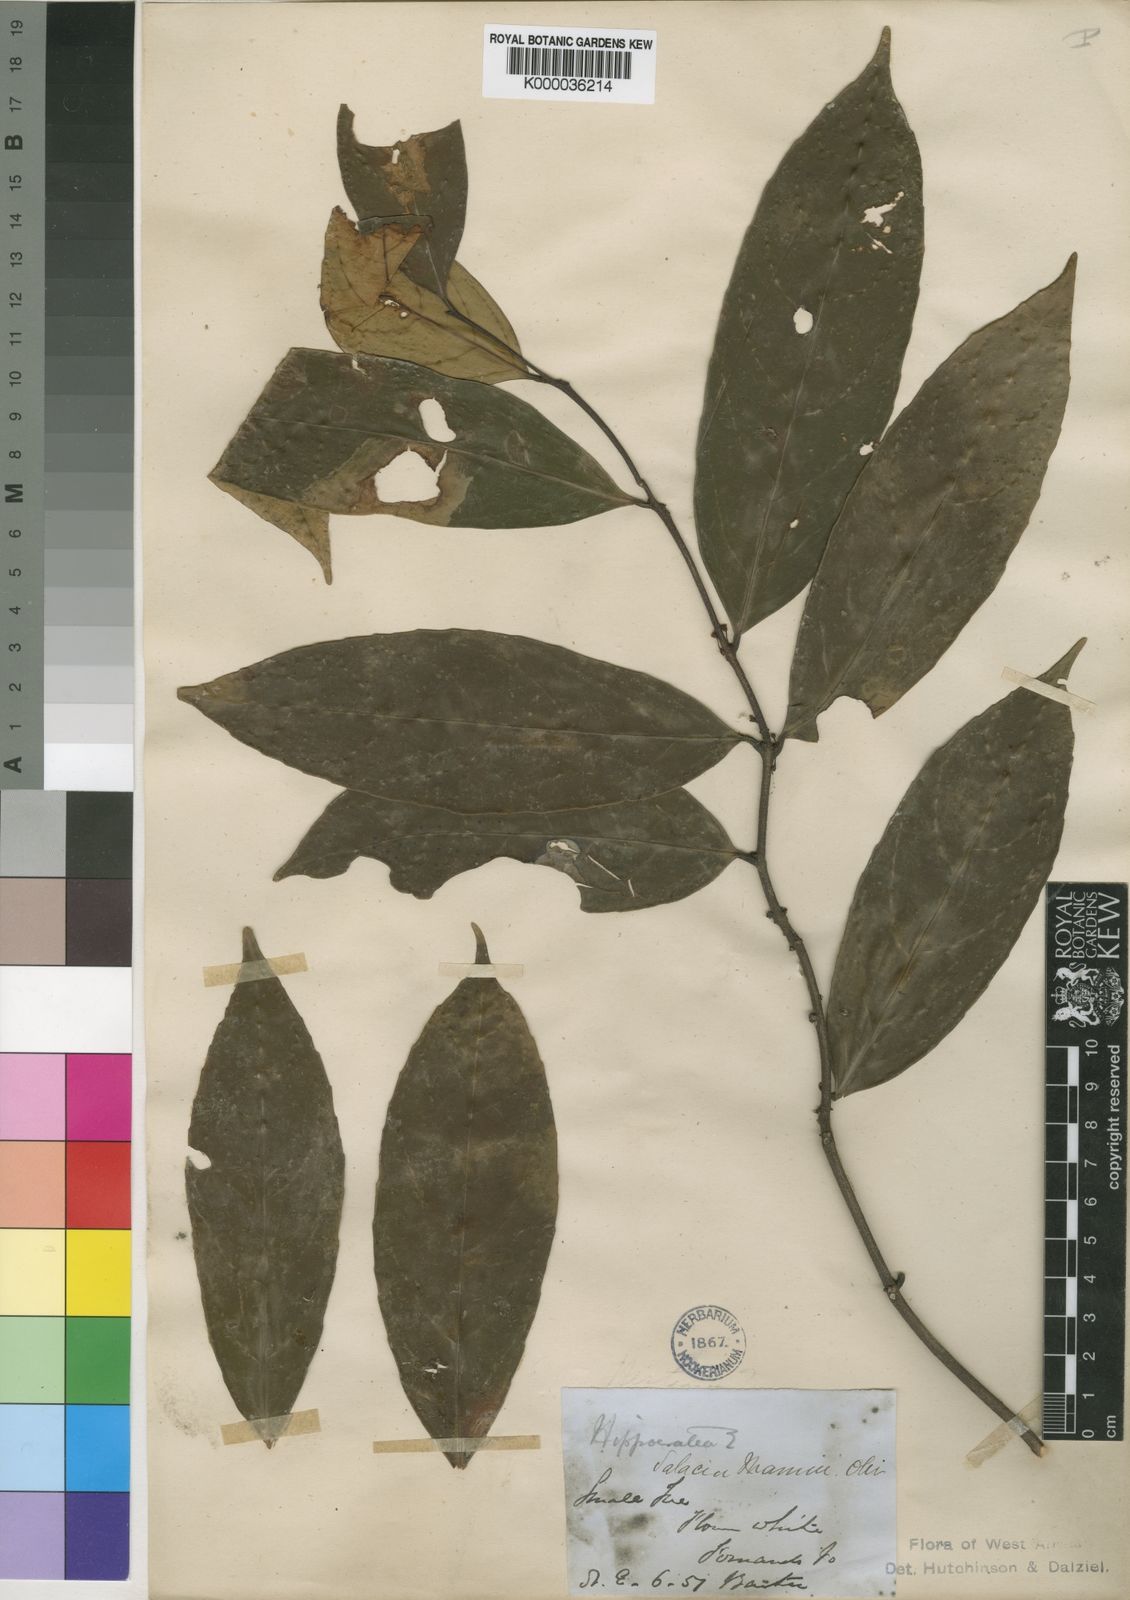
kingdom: Plantae
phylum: Tracheophyta
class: Magnoliopsida
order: Celastrales
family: Celastraceae
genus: Salacia
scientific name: Salacia mannii
